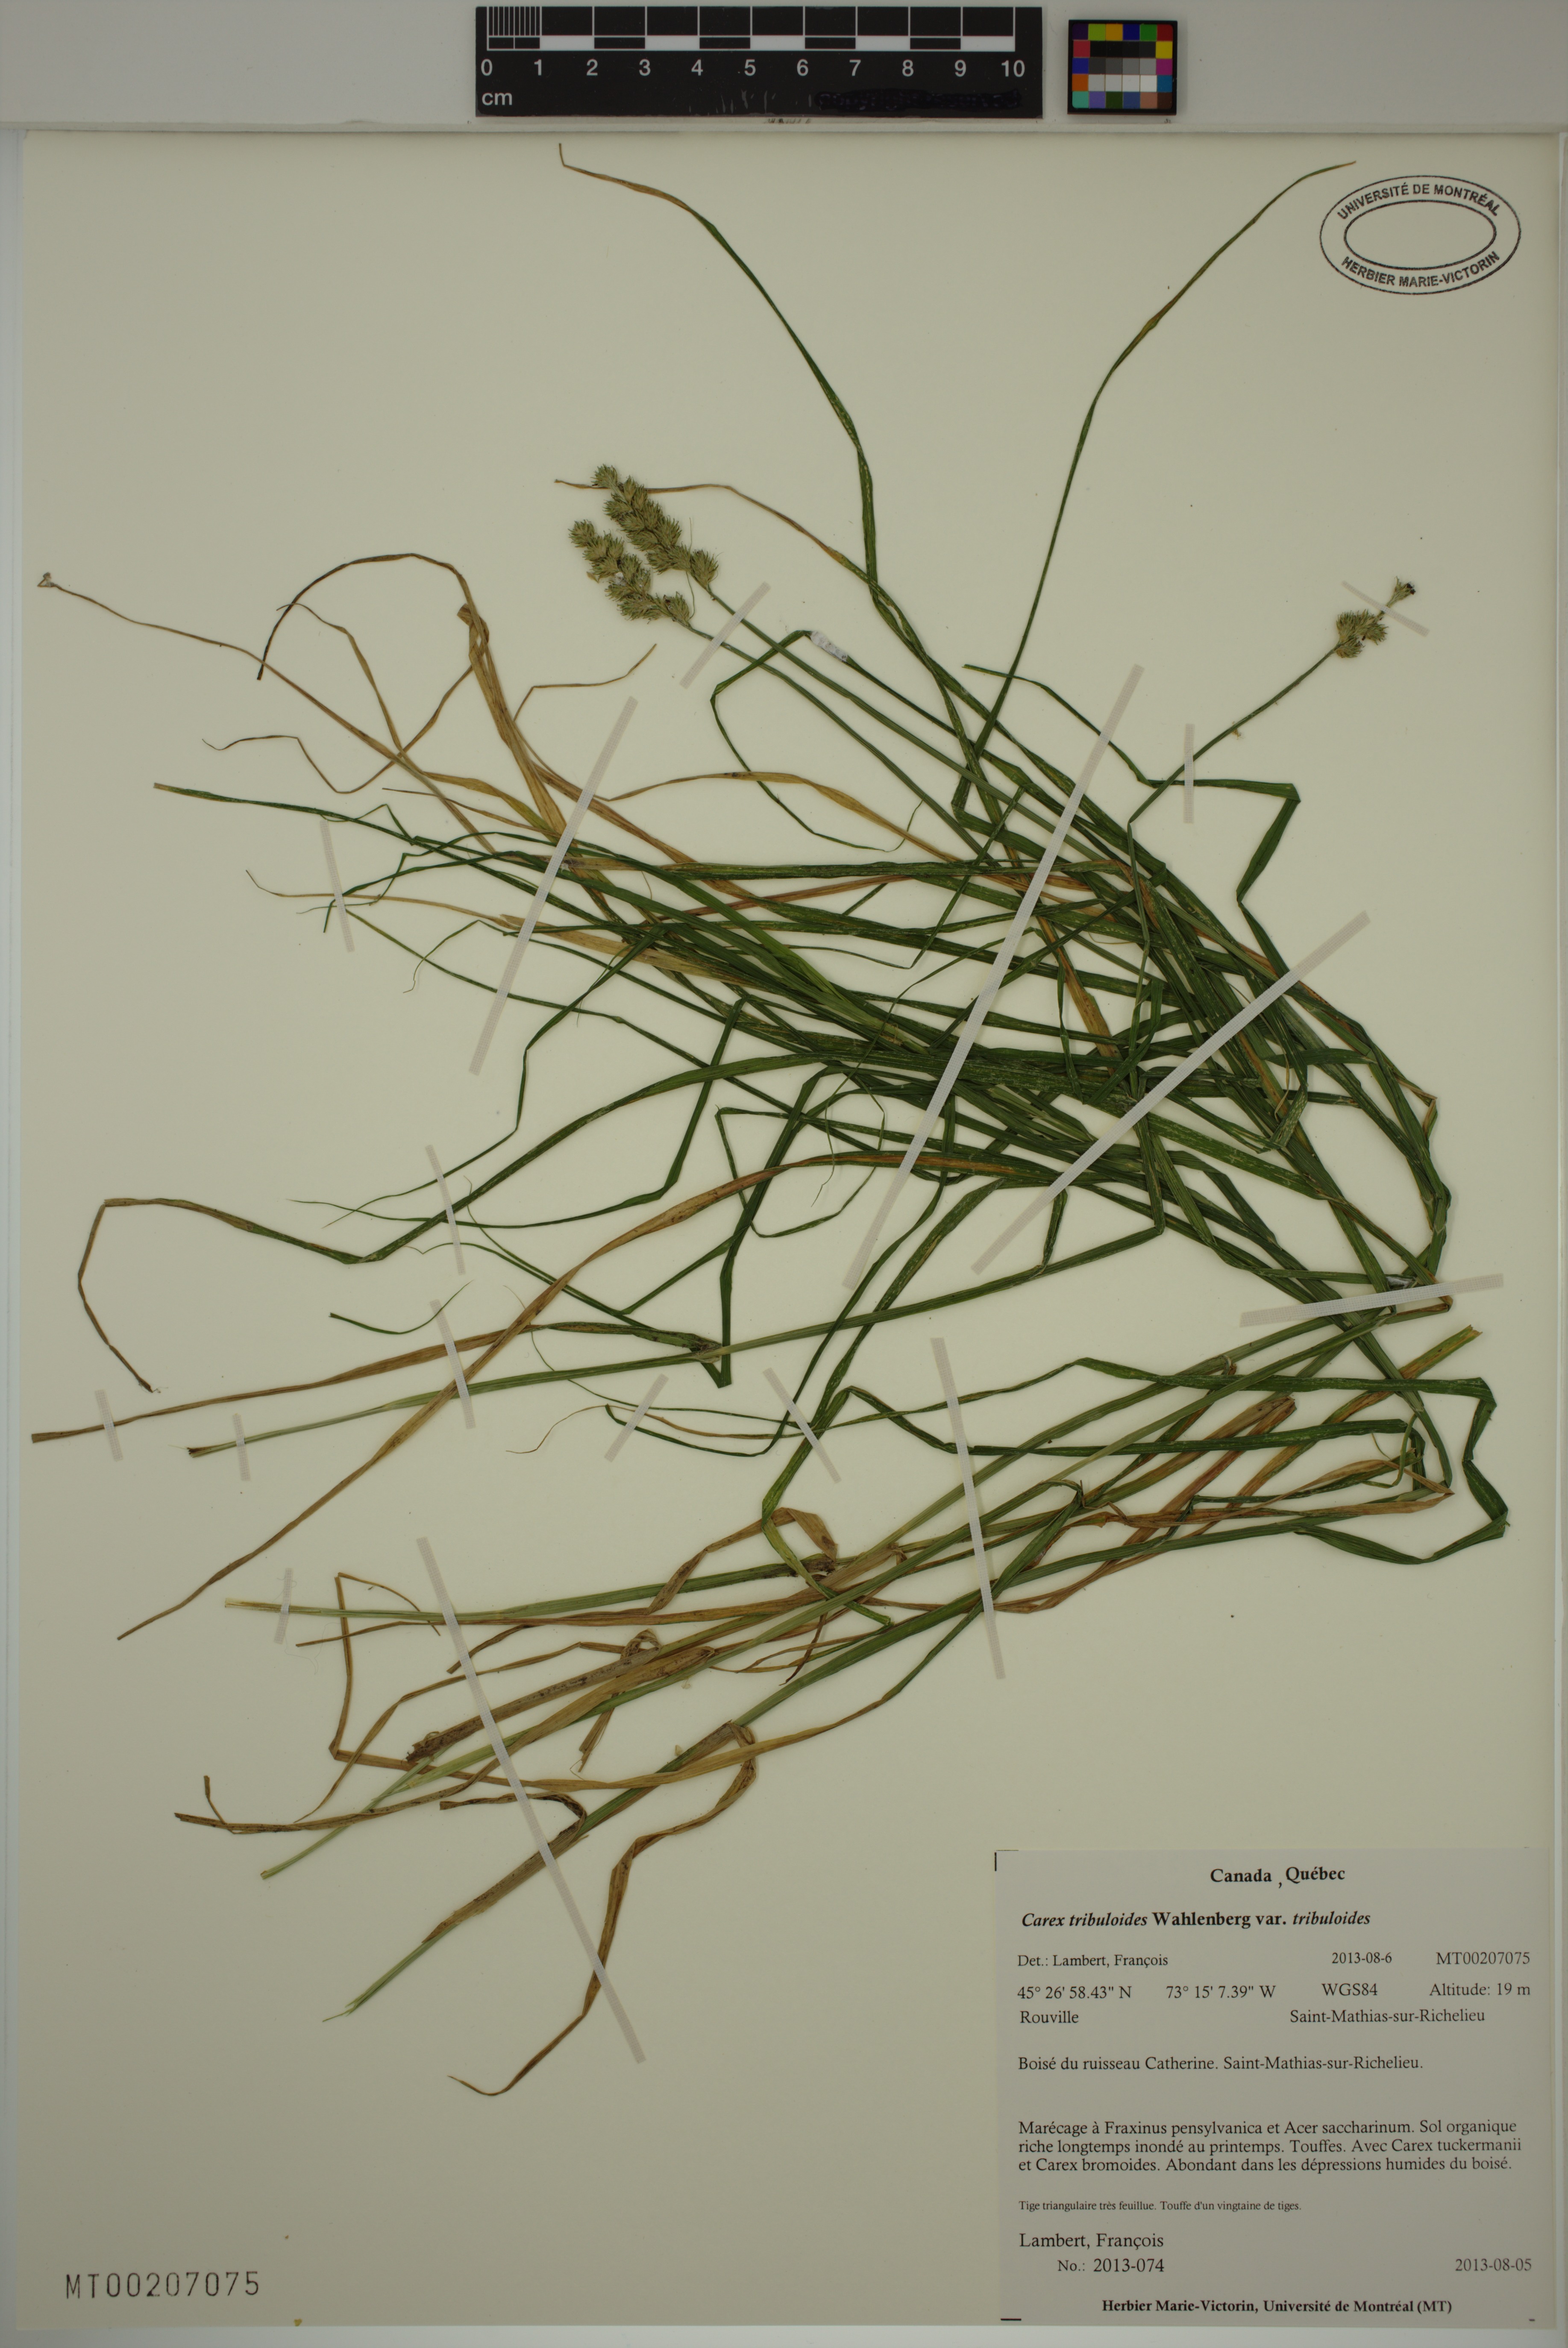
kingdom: Plantae
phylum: Tracheophyta
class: Liliopsida
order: Poales
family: Cyperaceae
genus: Carex
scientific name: Carex tribuloides
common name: Blunt broom sedge
